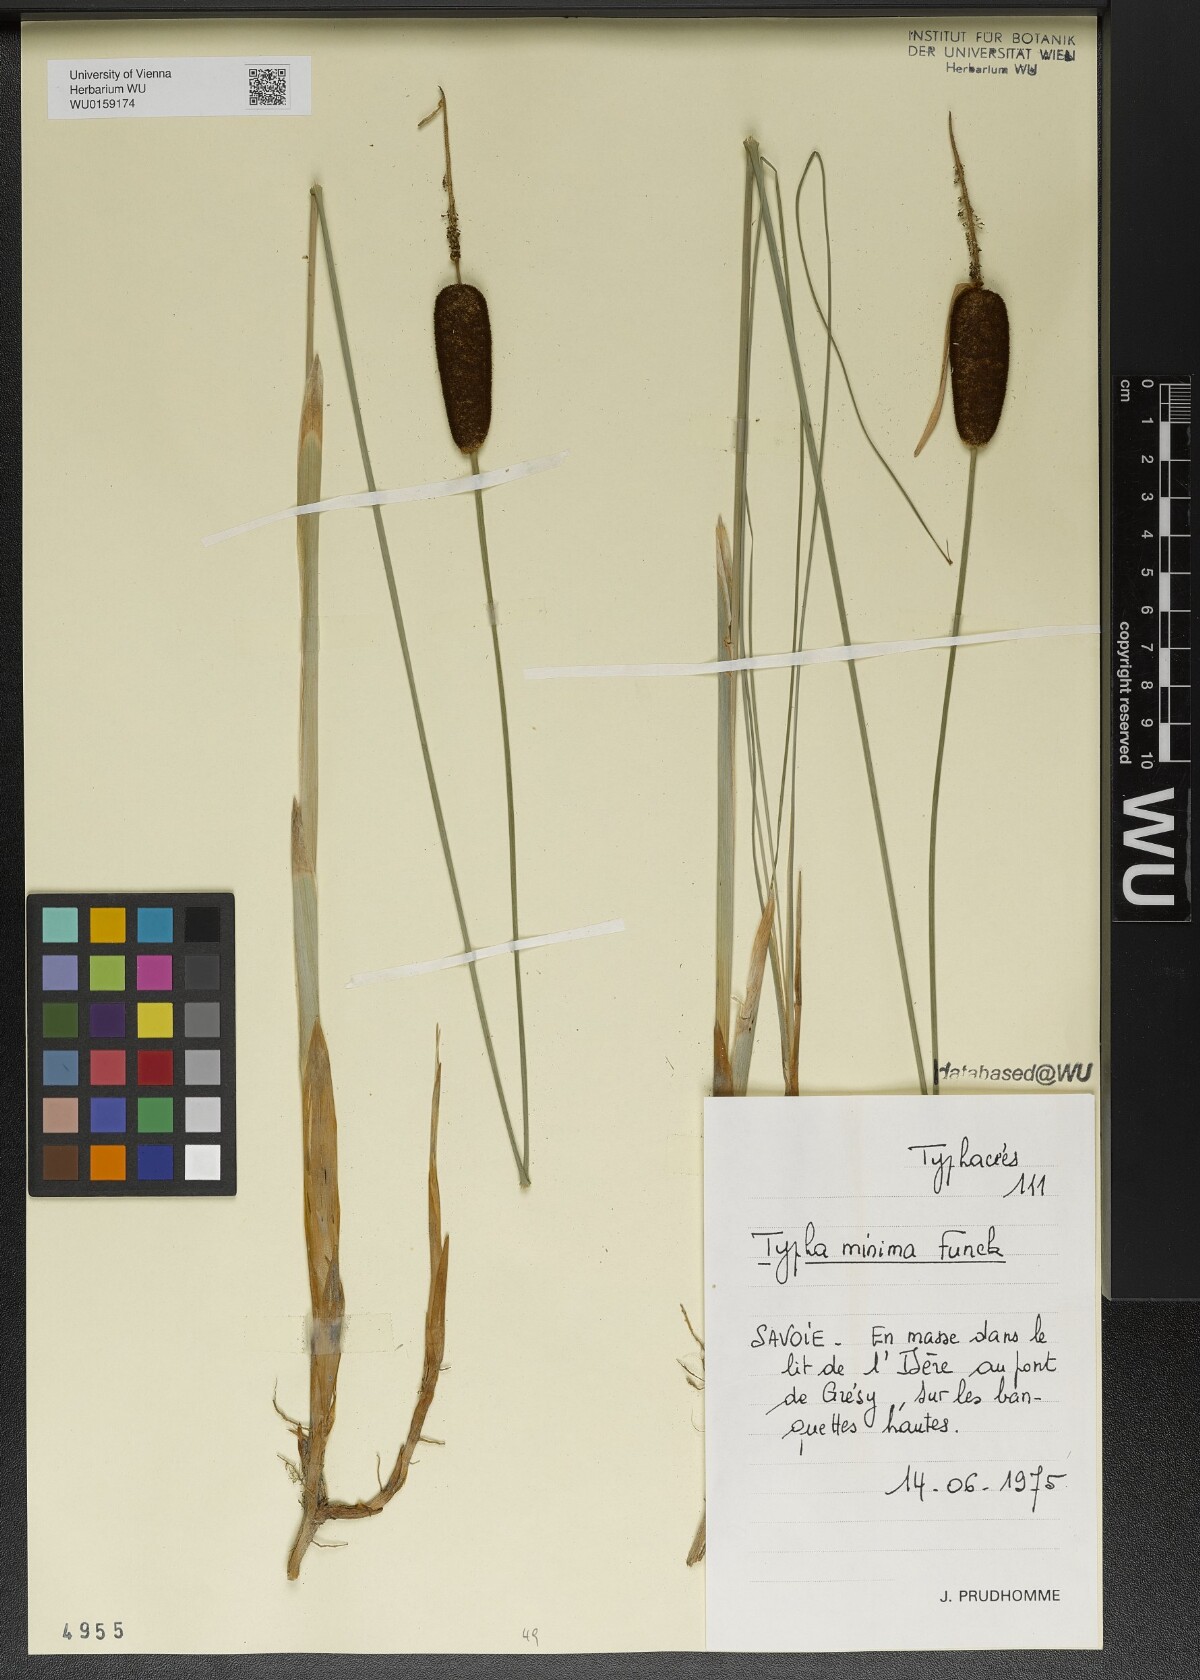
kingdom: Plantae
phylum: Tracheophyta
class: Liliopsida
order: Poales
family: Typhaceae
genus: Typha
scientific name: Typha minima
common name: Dwarf bulrush
